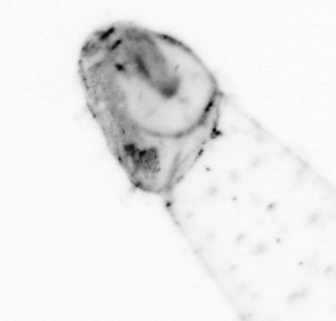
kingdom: Animalia
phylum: Chaetognatha
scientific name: Chaetognatha
